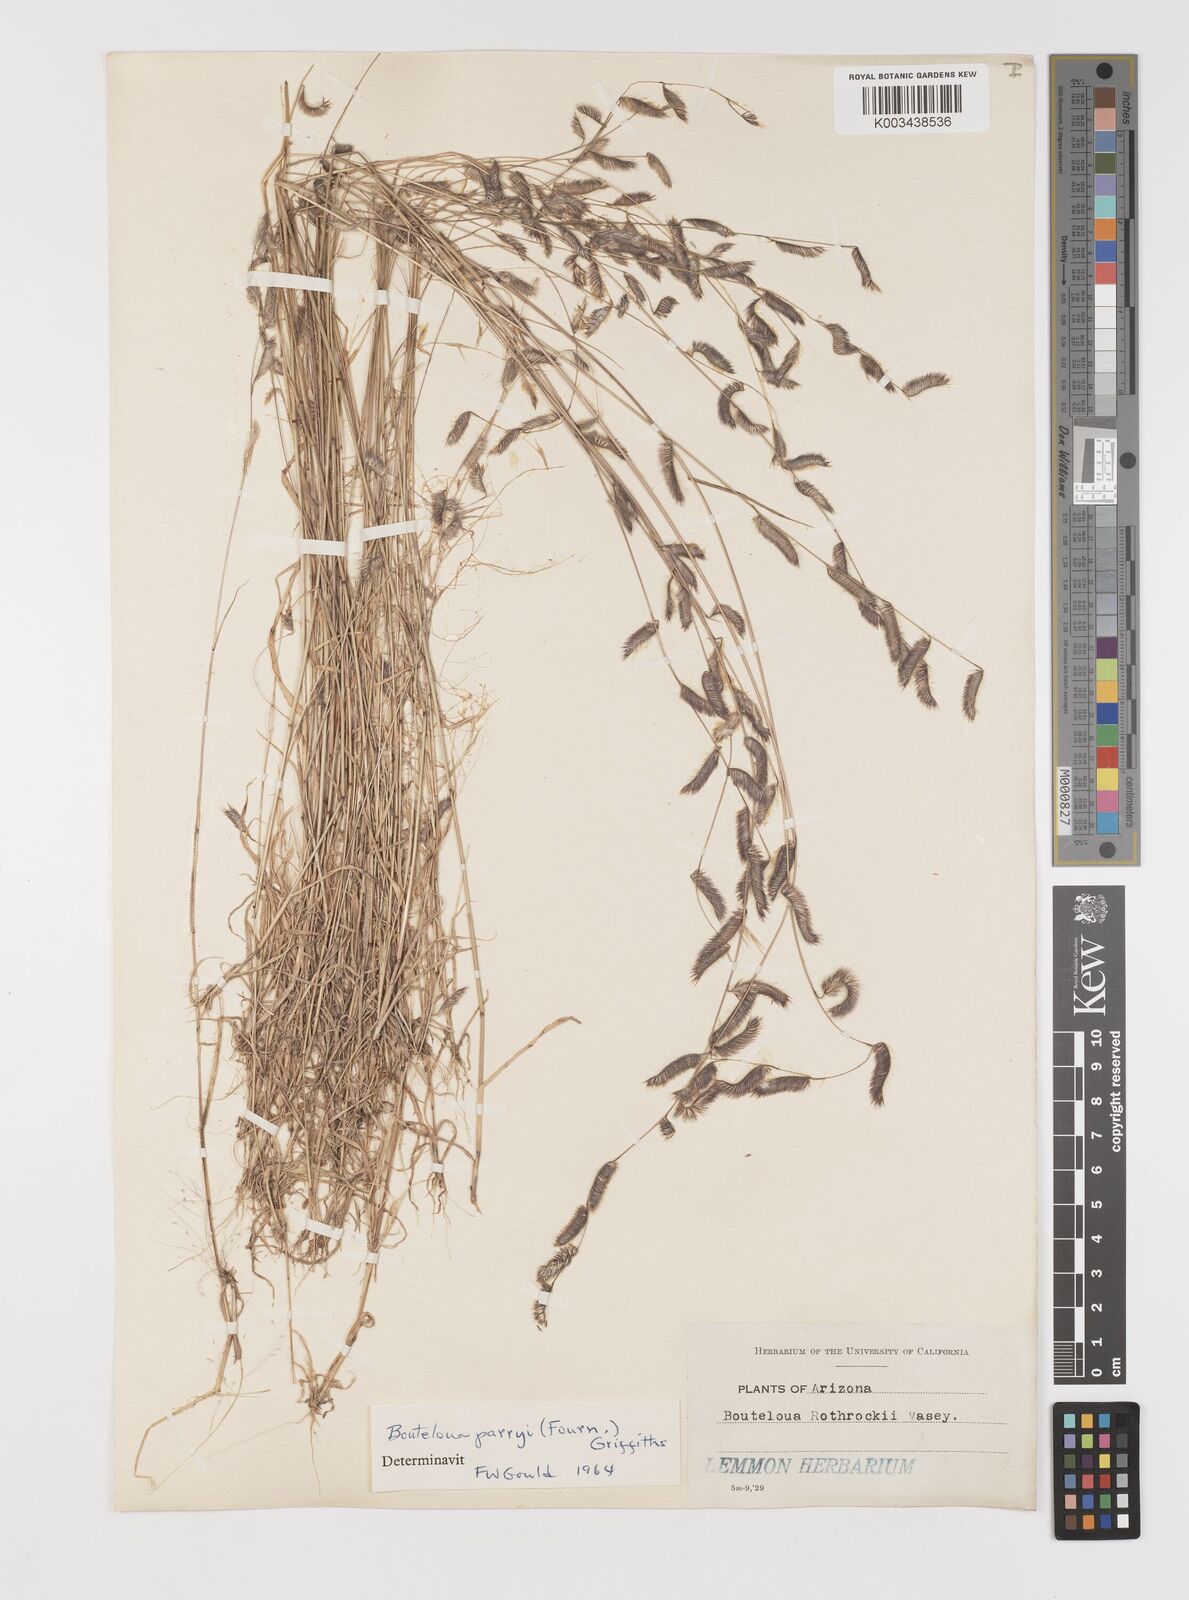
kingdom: Plantae
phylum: Tracheophyta
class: Liliopsida
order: Poales
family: Poaceae
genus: Bouteloua
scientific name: Bouteloua parryi
